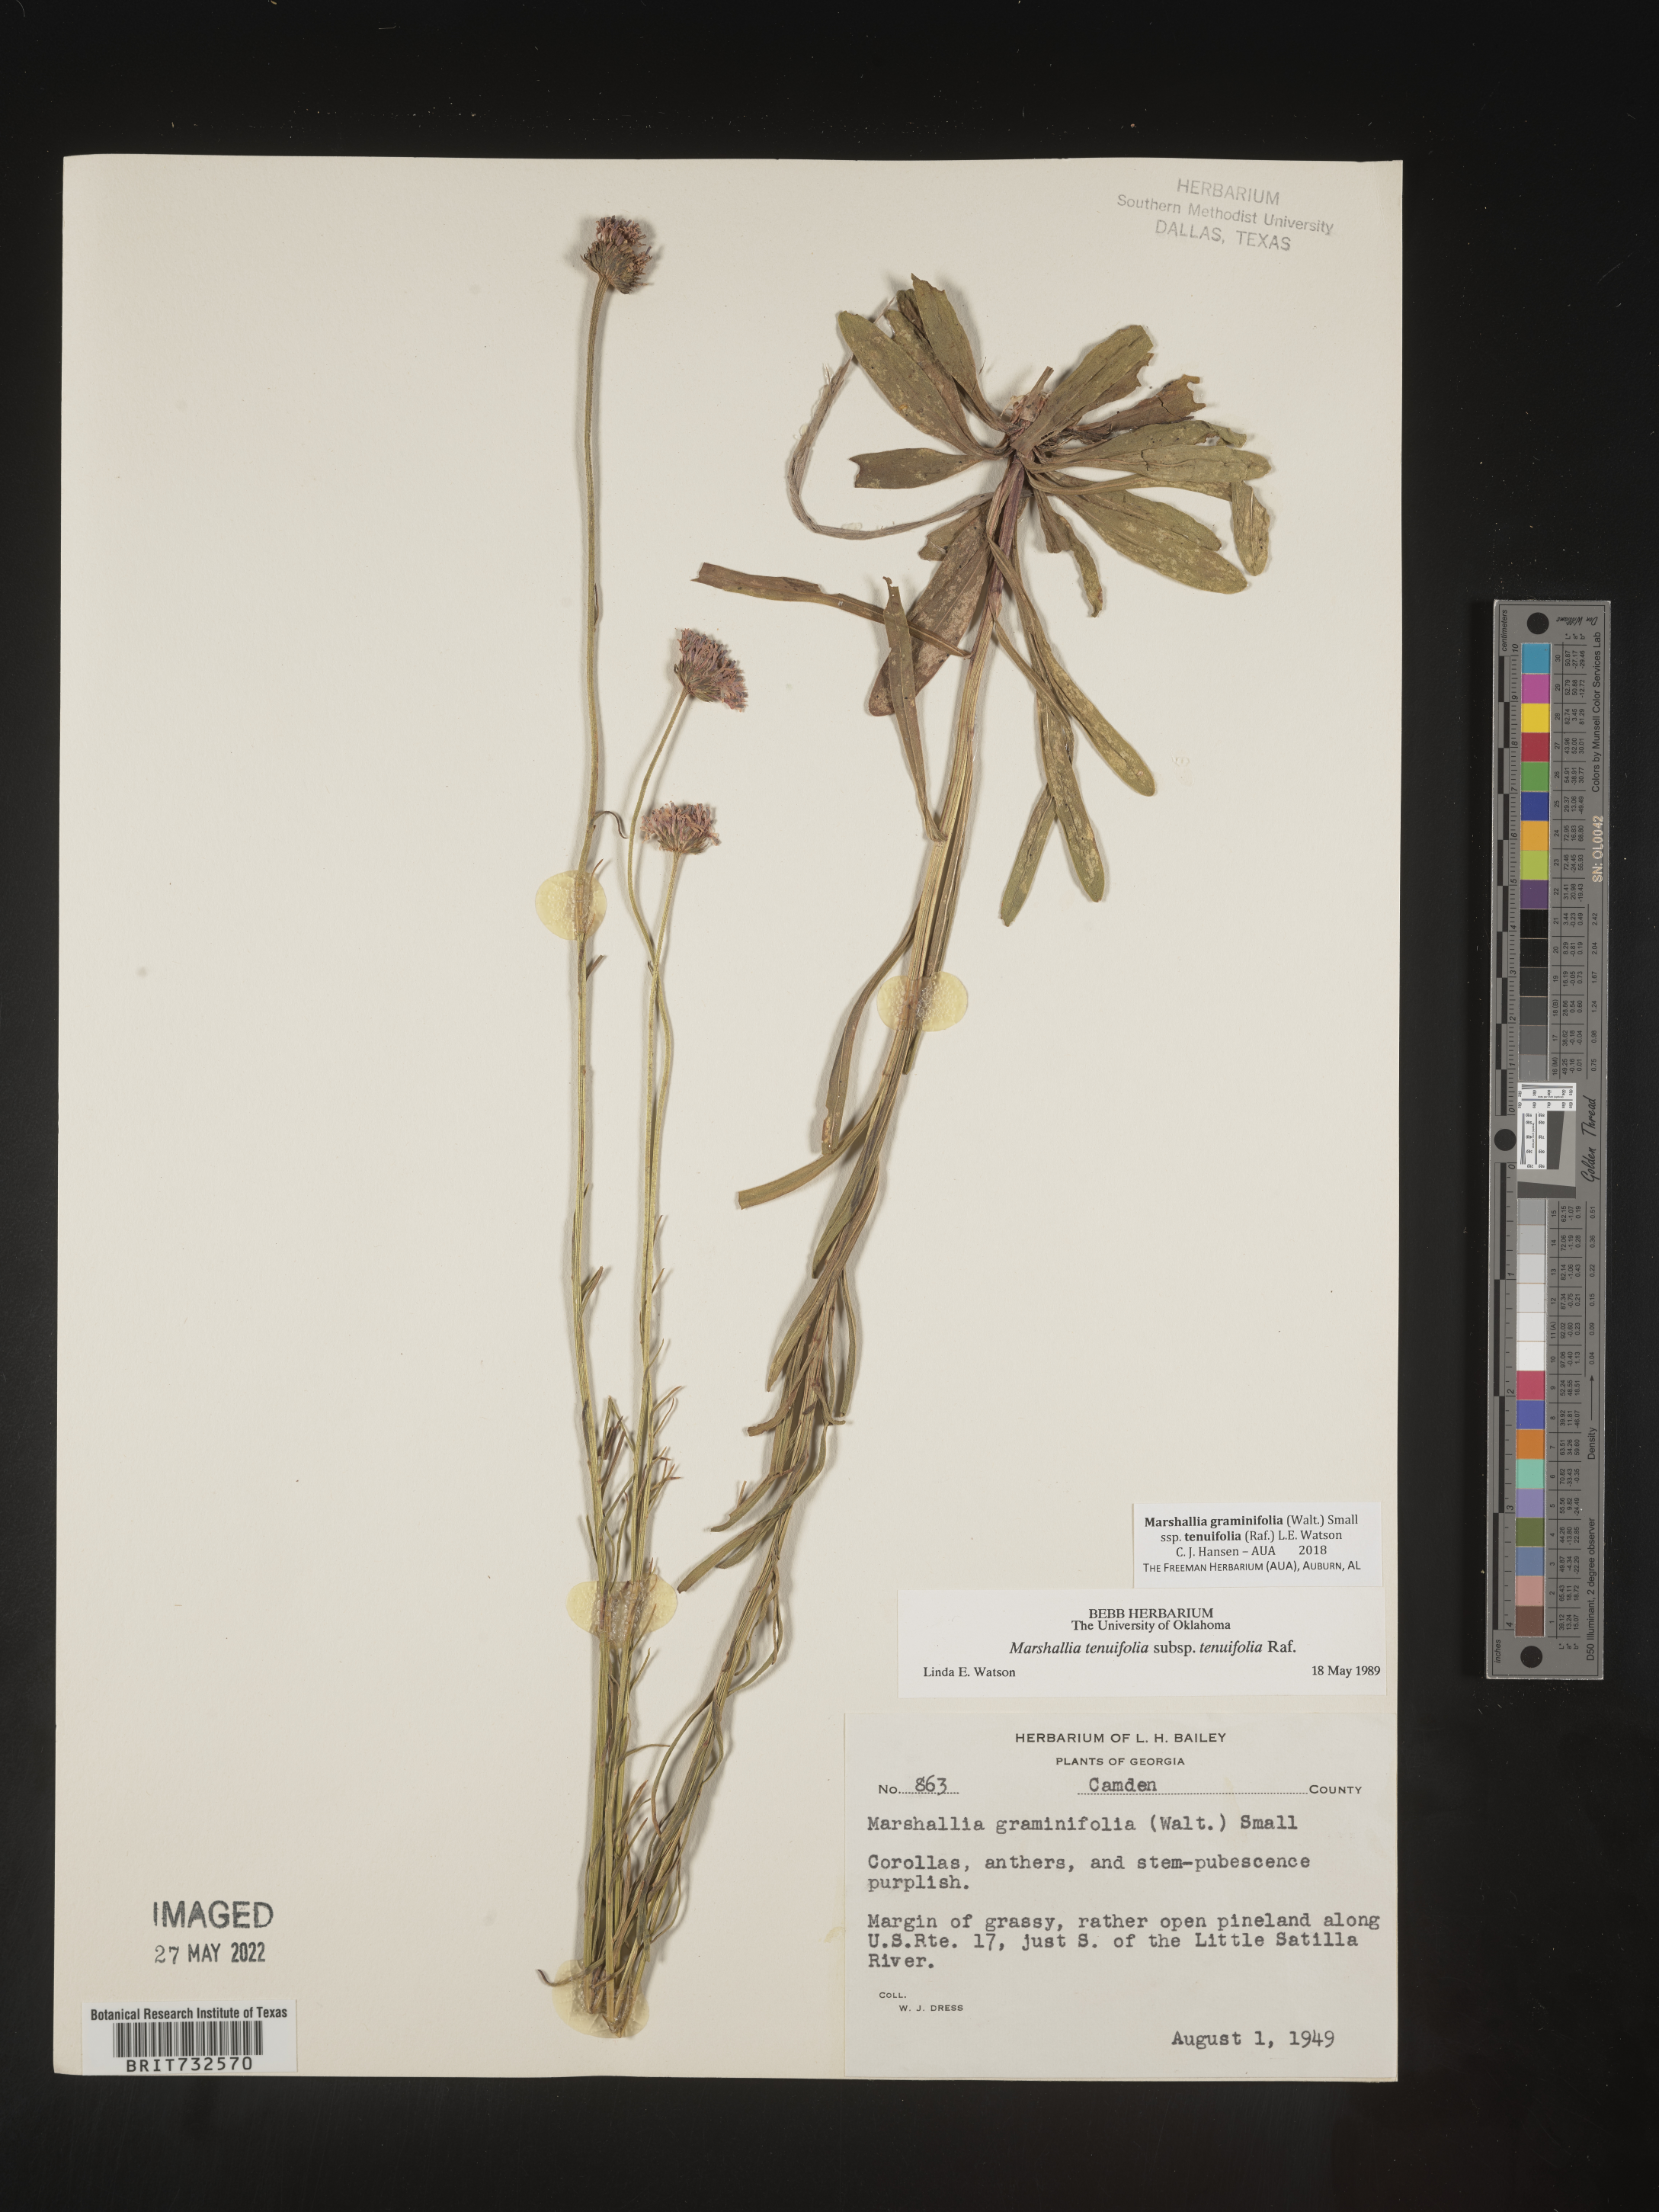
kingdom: Plantae
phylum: Tracheophyta
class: Magnoliopsida
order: Asterales
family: Asteraceae
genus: Marshallia
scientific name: Marshallia graminifolia
